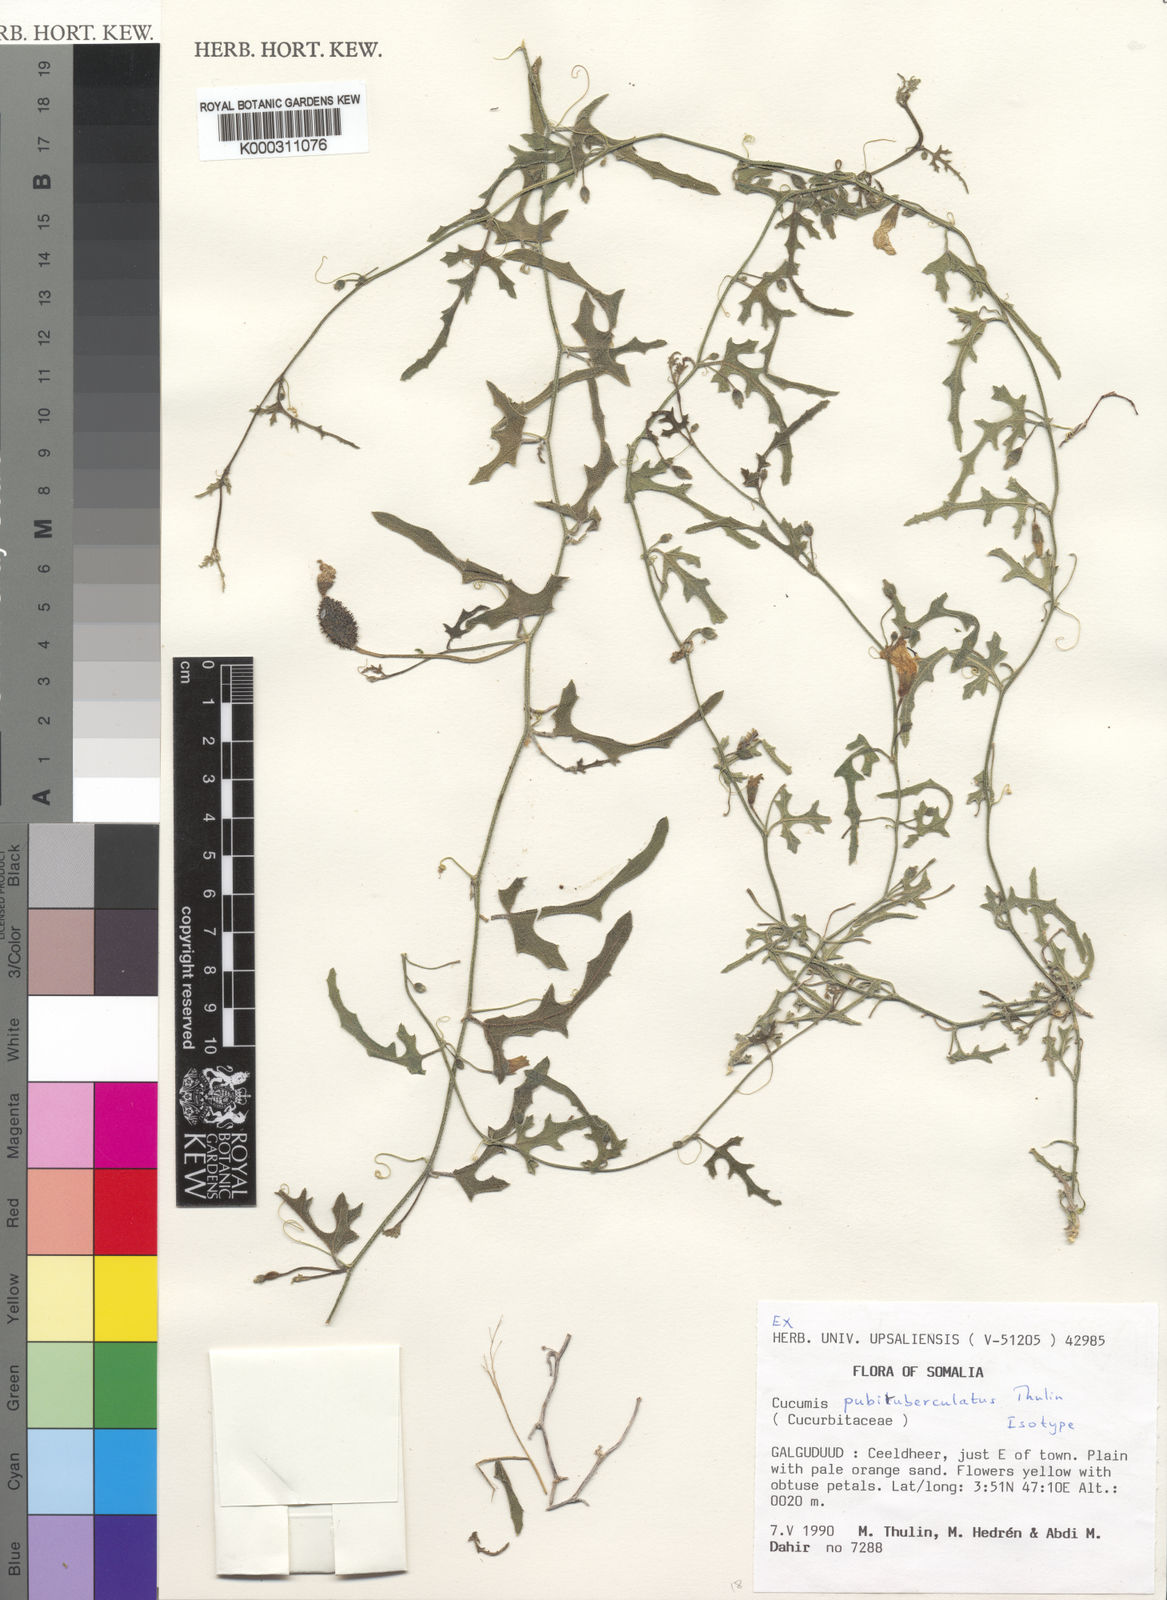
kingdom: Plantae
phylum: Tracheophyta
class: Magnoliopsida
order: Cucurbitales
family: Cucurbitaceae
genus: Cucumis
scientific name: Cucumis pubituberculatus
